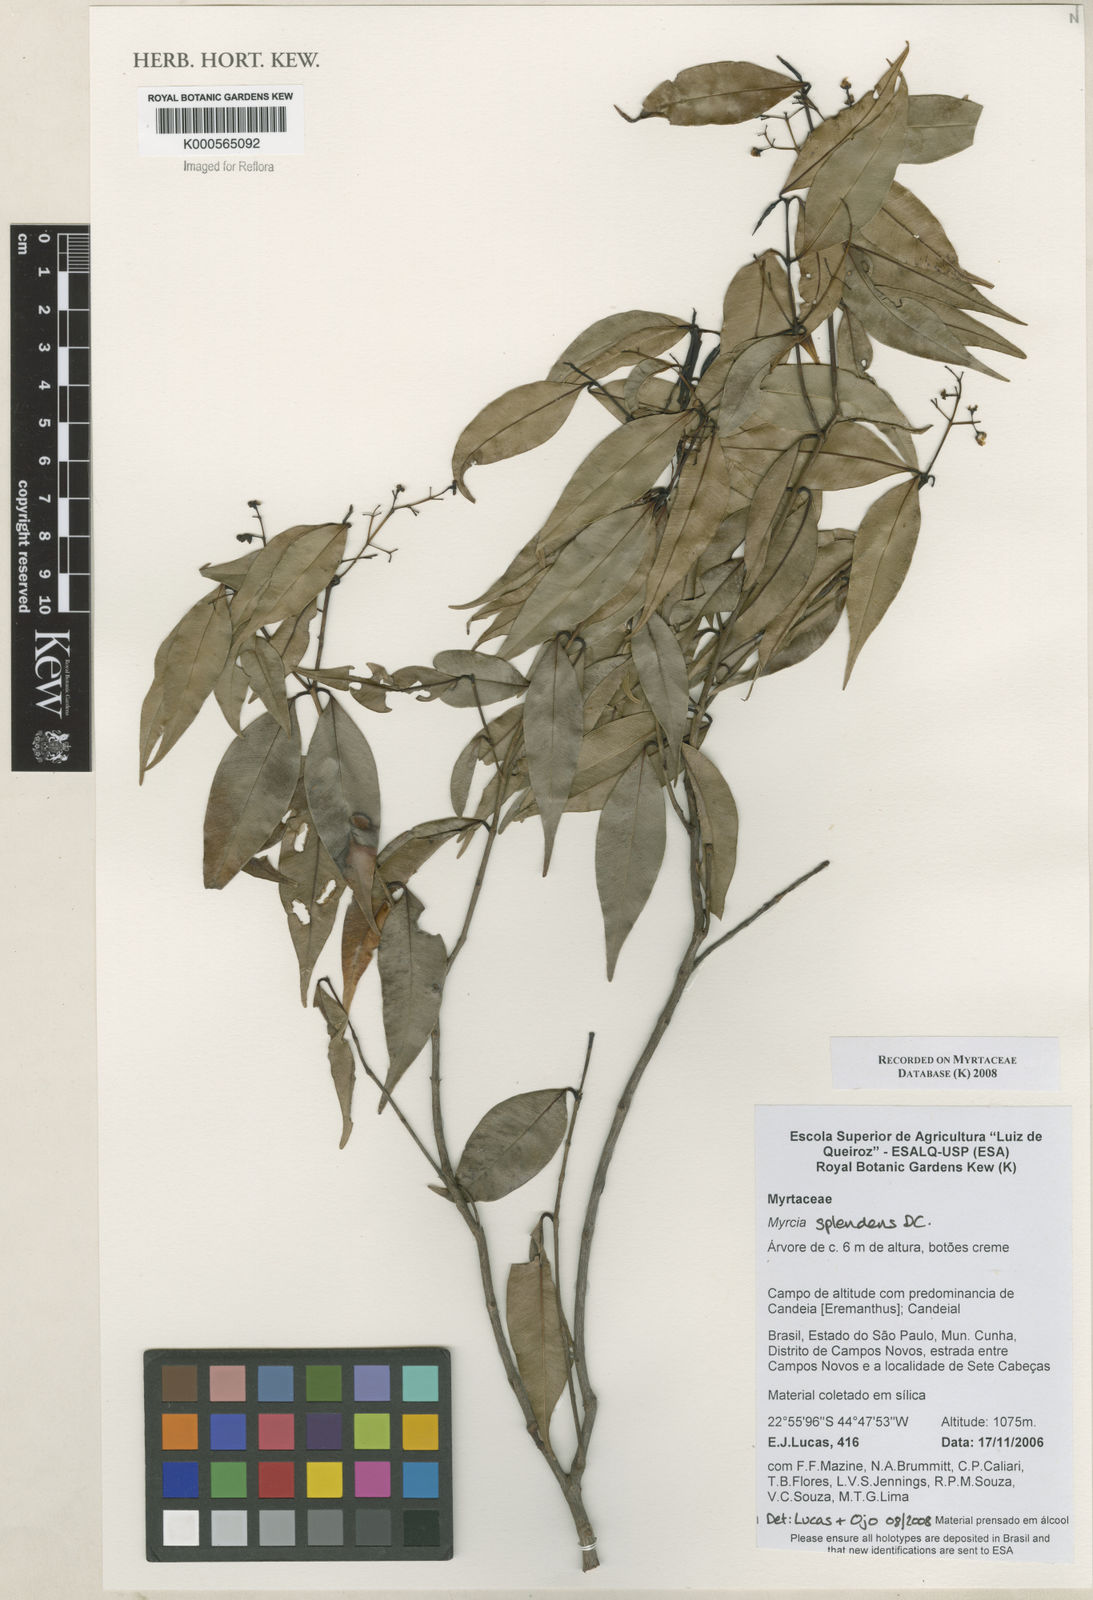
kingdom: Plantae
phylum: Tracheophyta
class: Magnoliopsida
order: Myrtales
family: Myrtaceae
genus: Myrcia
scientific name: Myrcia splendens
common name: Surinam cherry
